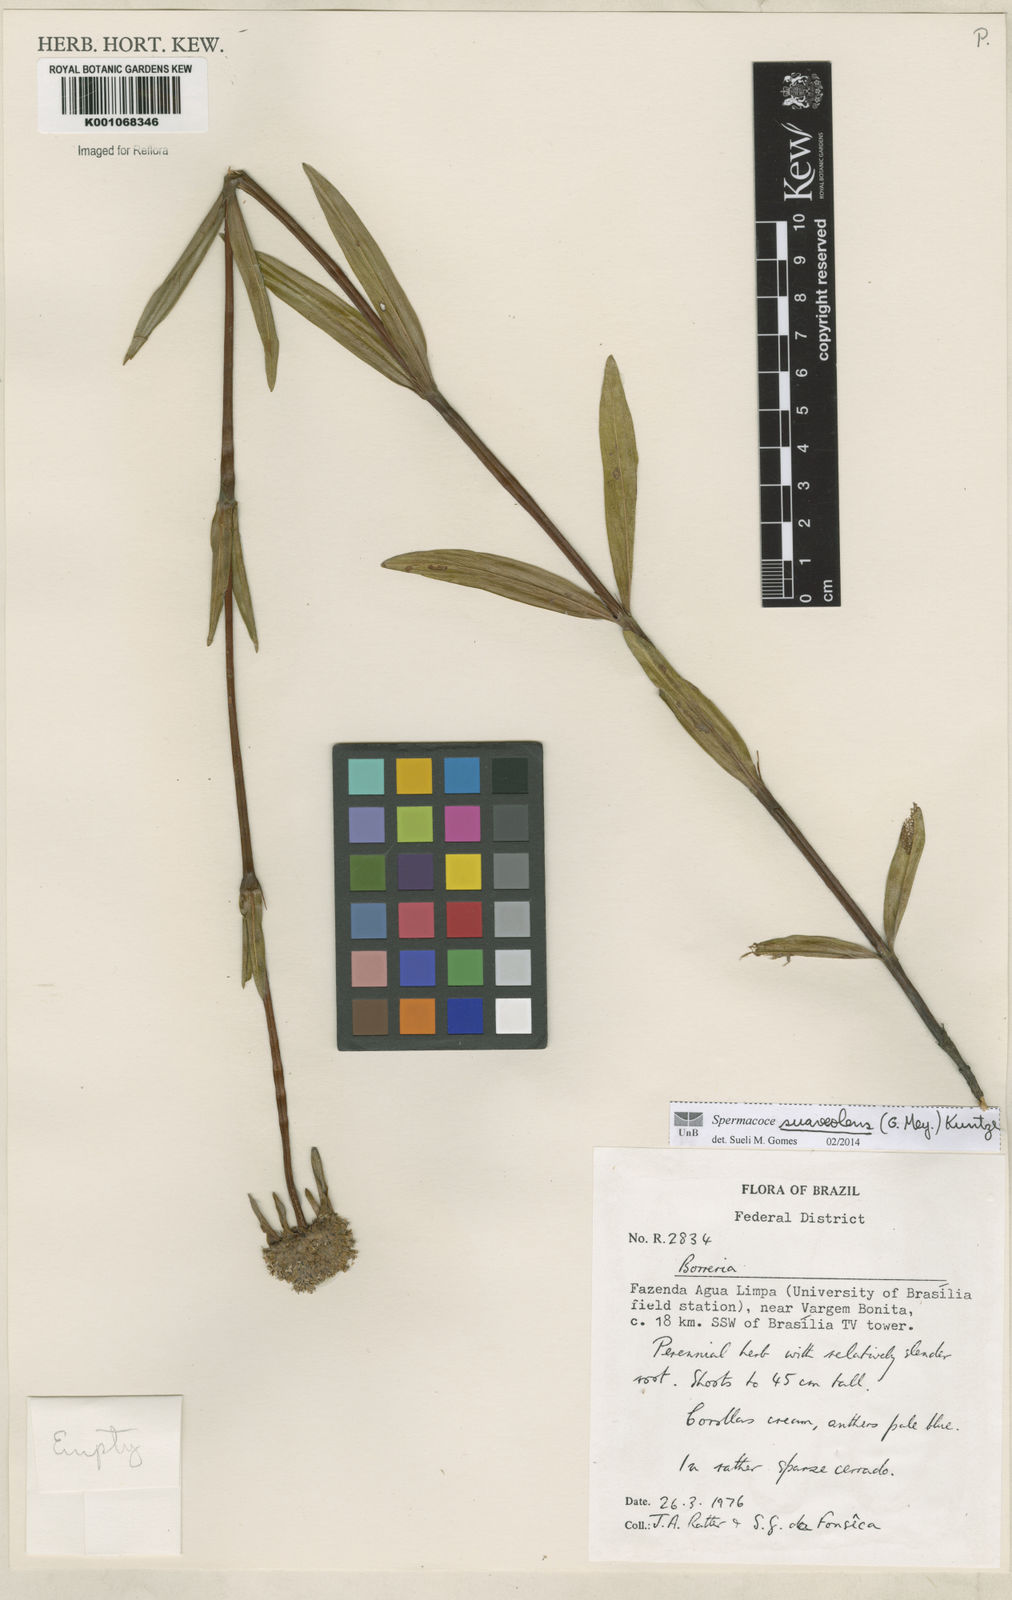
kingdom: Plantae
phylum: Tracheophyta
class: Magnoliopsida
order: Gentianales
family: Rubiaceae
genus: Spermacoce
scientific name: Spermacoce suaveolens
